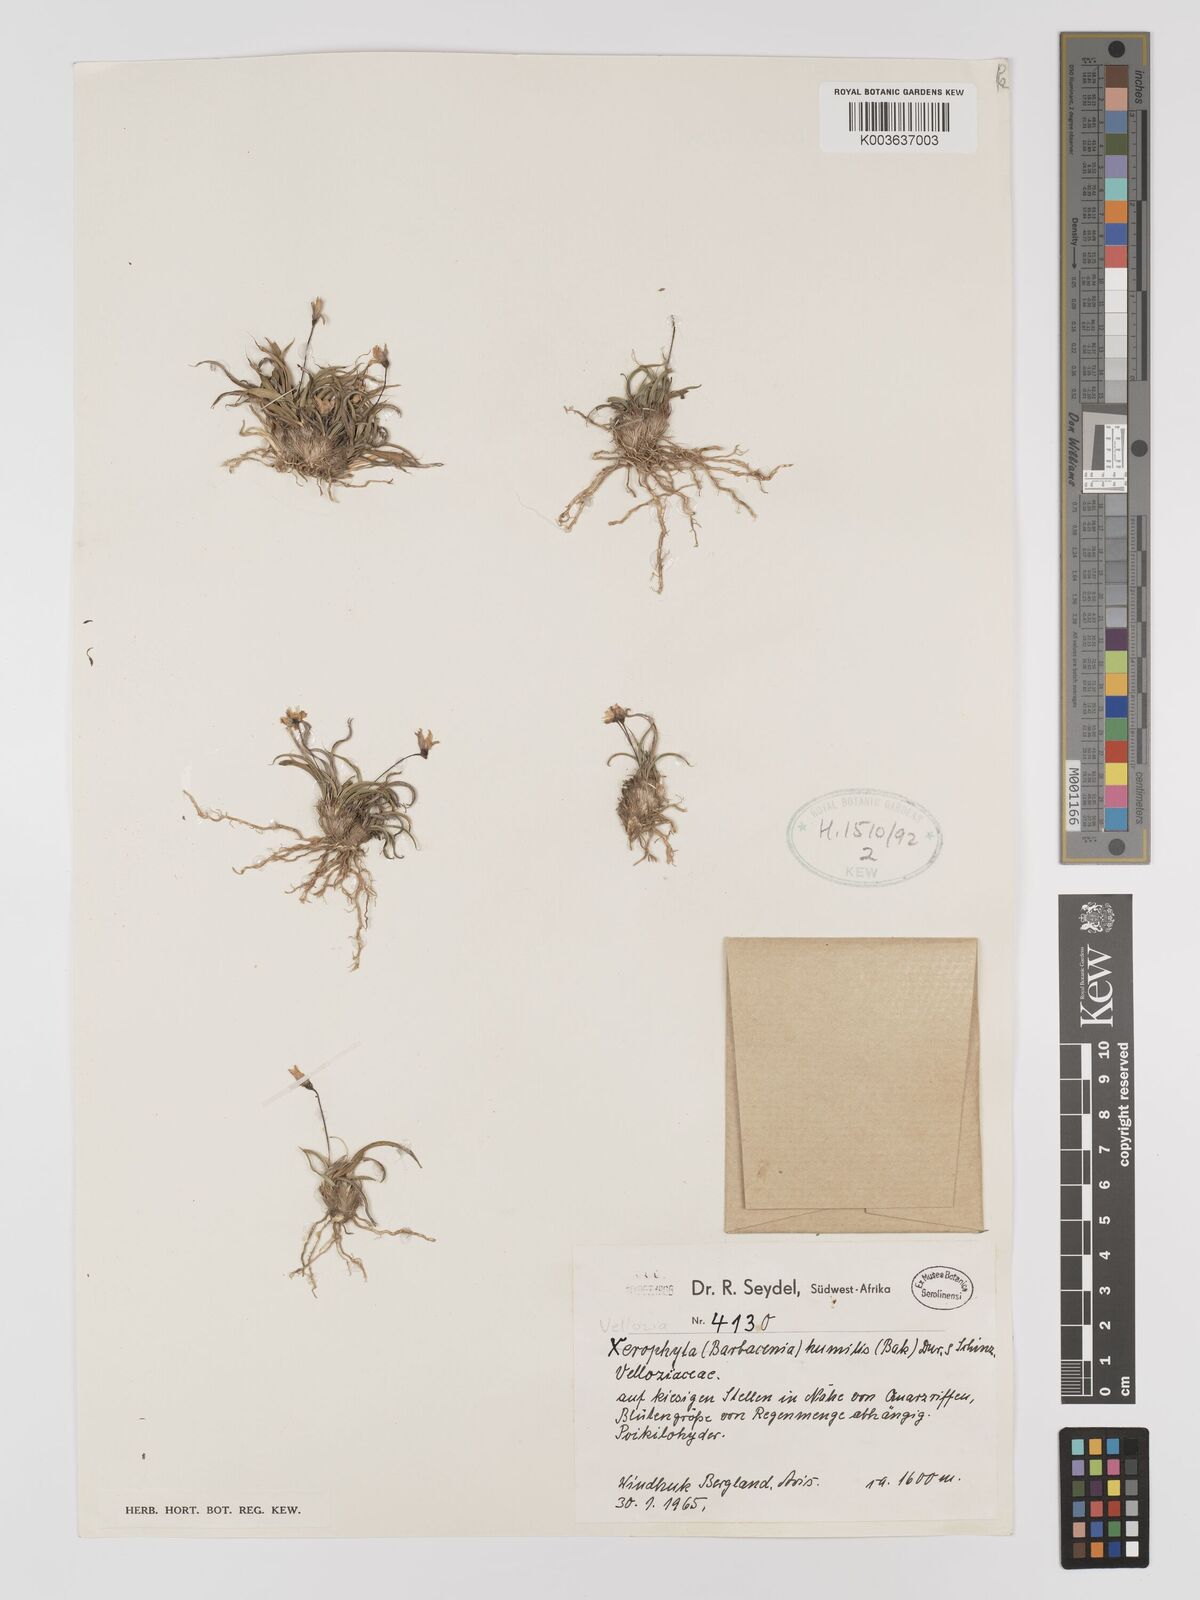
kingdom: Plantae
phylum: Tracheophyta
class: Liliopsida
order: Pandanales
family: Velloziaceae
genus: Xerophyta
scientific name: Xerophyta humilis
